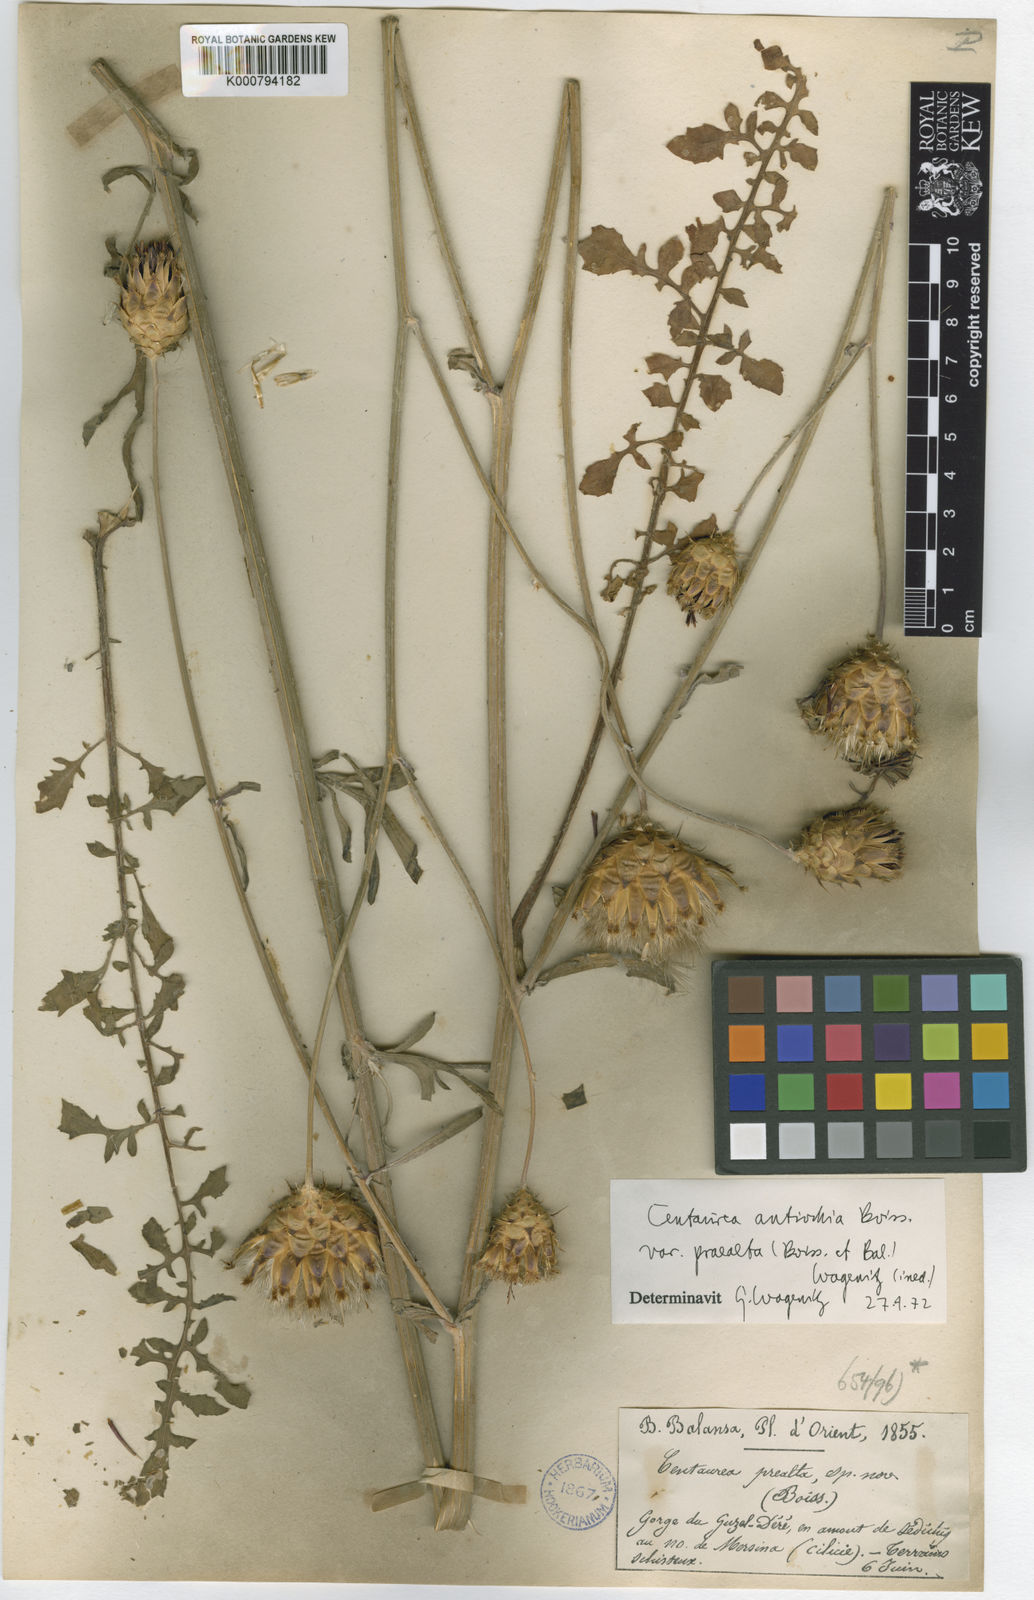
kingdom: Plantae
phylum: Tracheophyta
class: Magnoliopsida
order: Asterales
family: Asteraceae
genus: Centaurea
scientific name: Centaurea antiochia
